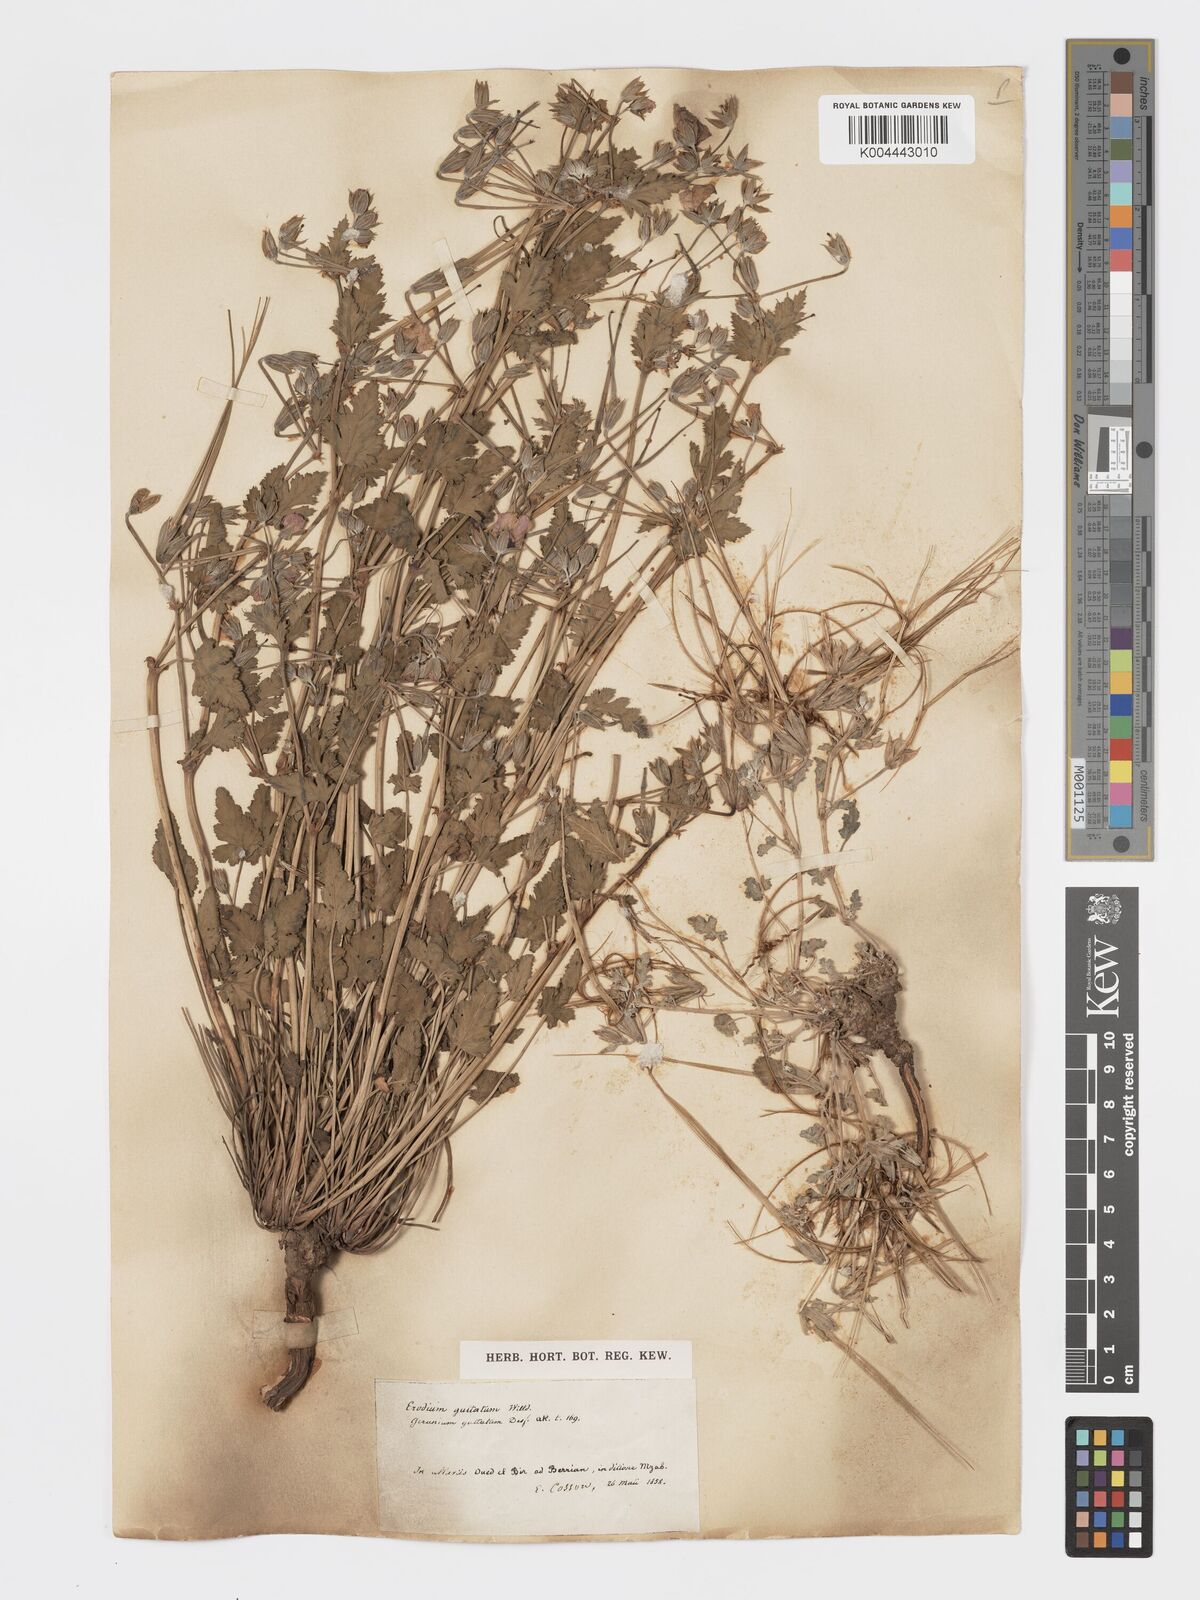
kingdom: Plantae
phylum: Tracheophyta
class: Magnoliopsida
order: Geraniales
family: Geraniaceae
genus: Erodium
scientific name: Erodium guttatum
